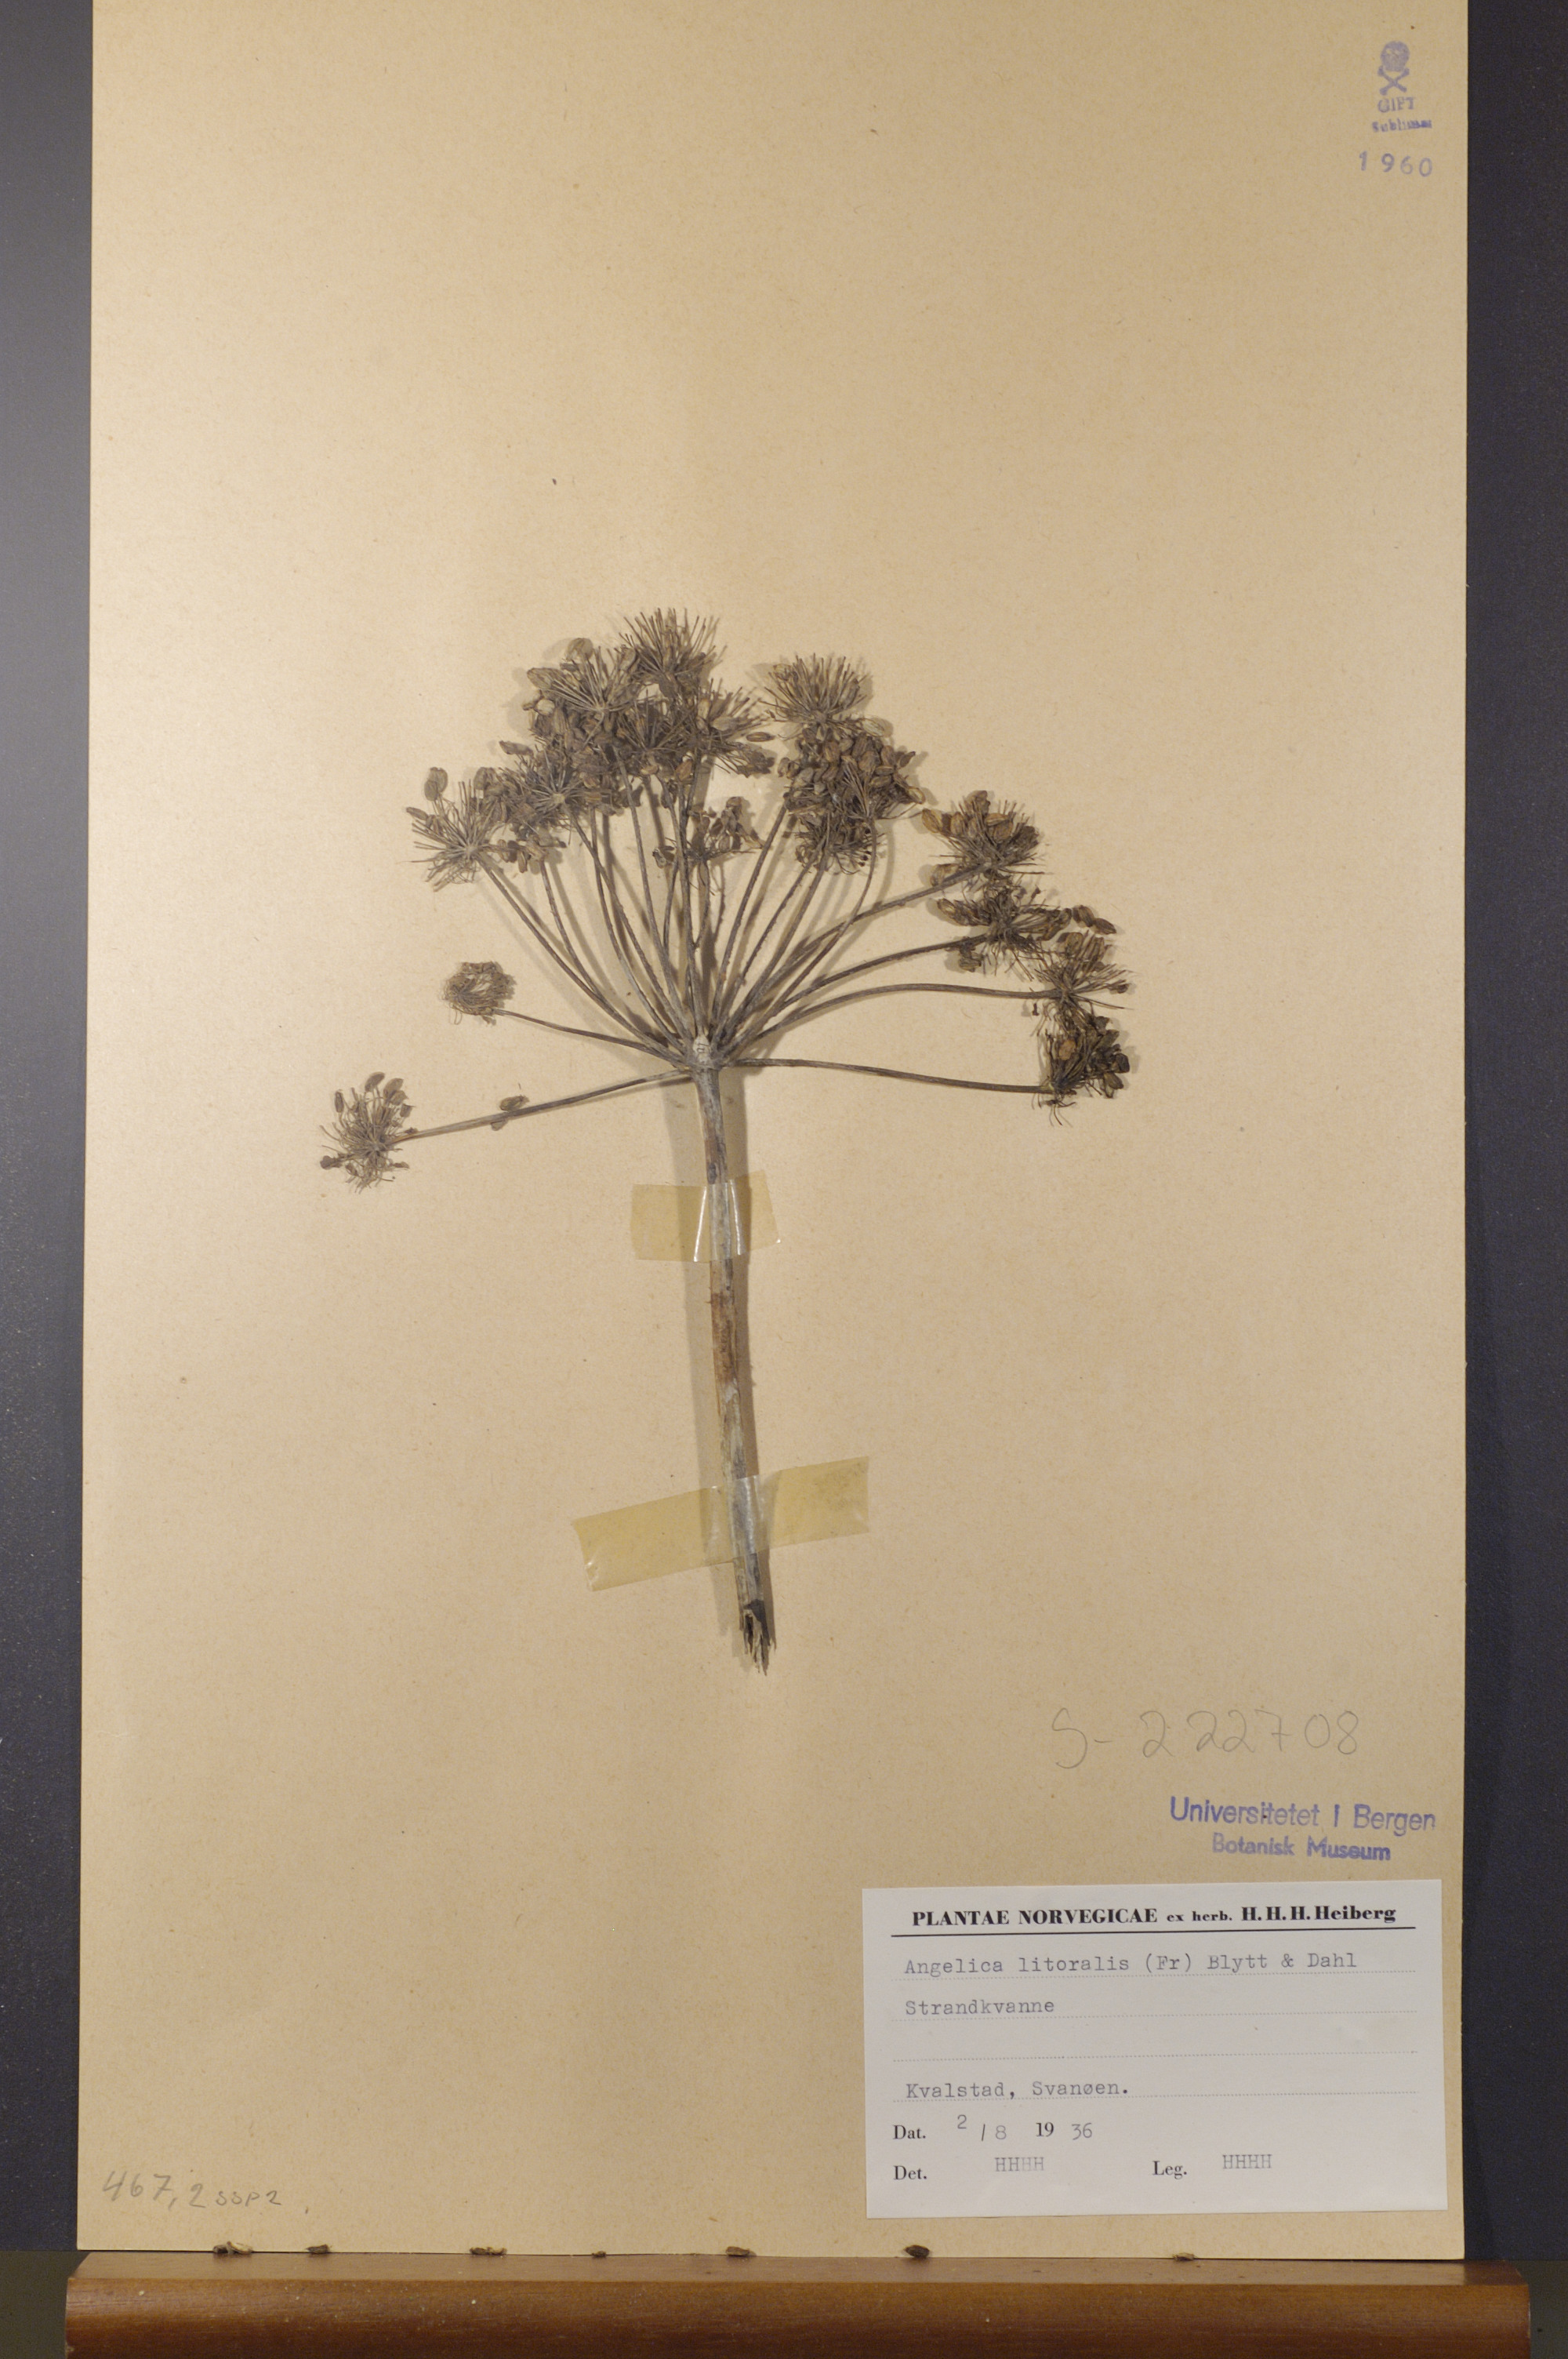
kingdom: Plantae
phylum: Tracheophyta
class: Magnoliopsida
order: Apiales
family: Apiaceae
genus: Angelica
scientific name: Angelica archangelica
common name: Garden angelica
